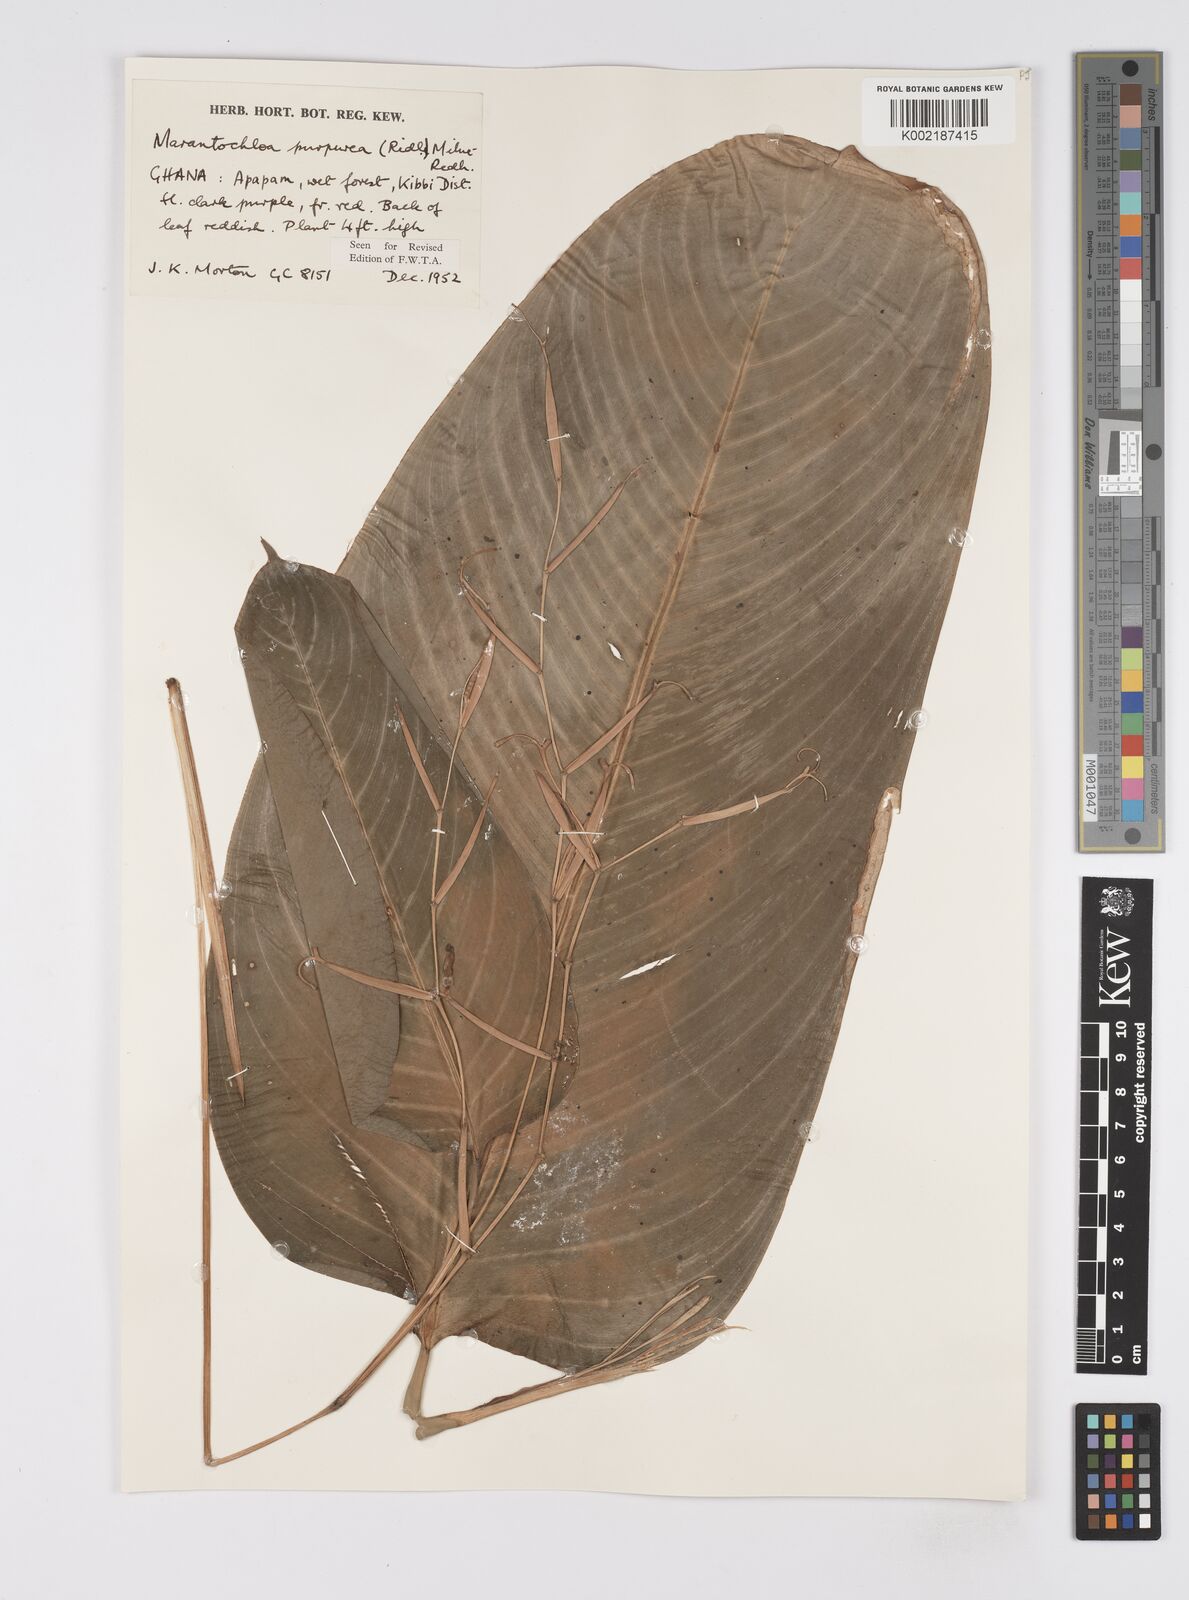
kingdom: Plantae
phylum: Tracheophyta
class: Liliopsida
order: Zingiberales
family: Marantaceae
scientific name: Marantaceae
